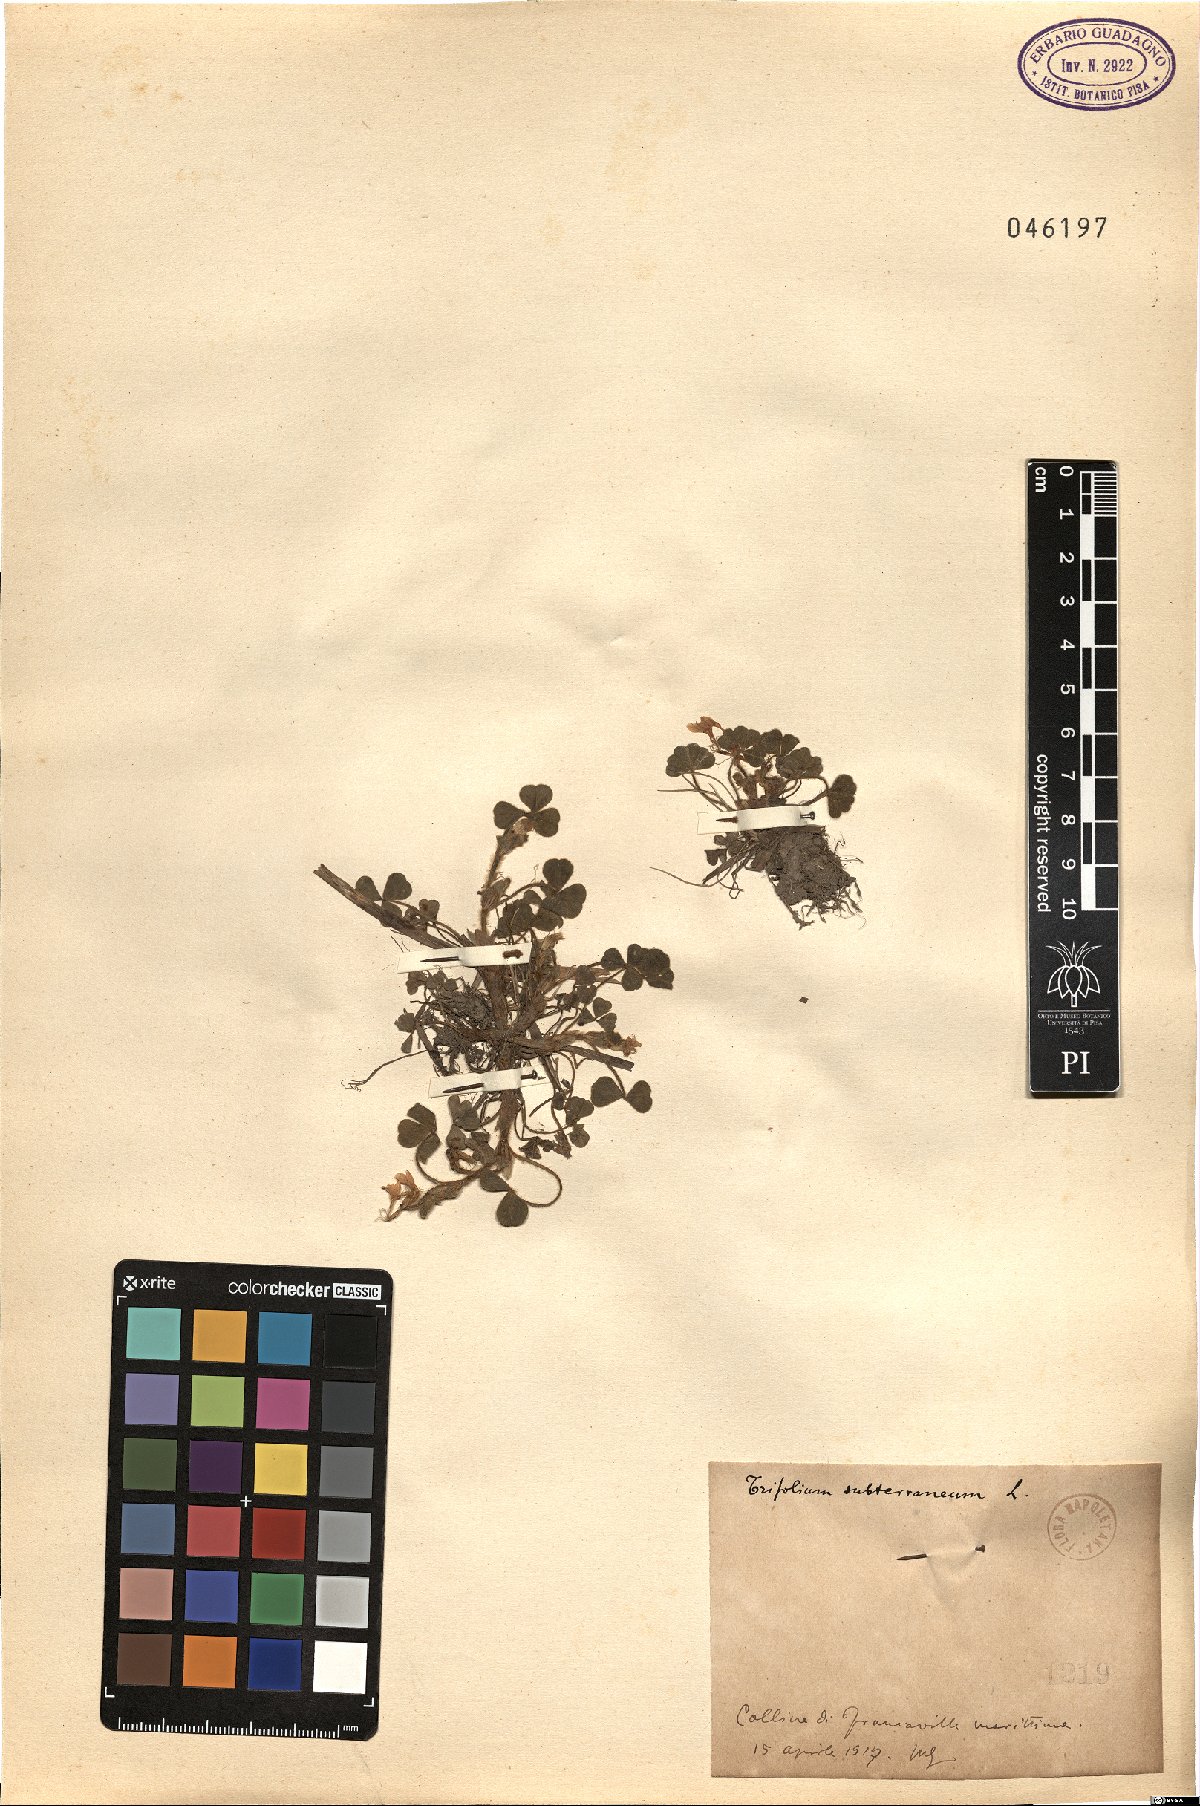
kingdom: Plantae
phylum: Tracheophyta
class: Magnoliopsida
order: Fabales
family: Fabaceae
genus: Trifolium
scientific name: Trifolium subterraneum
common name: Subterranean clover
